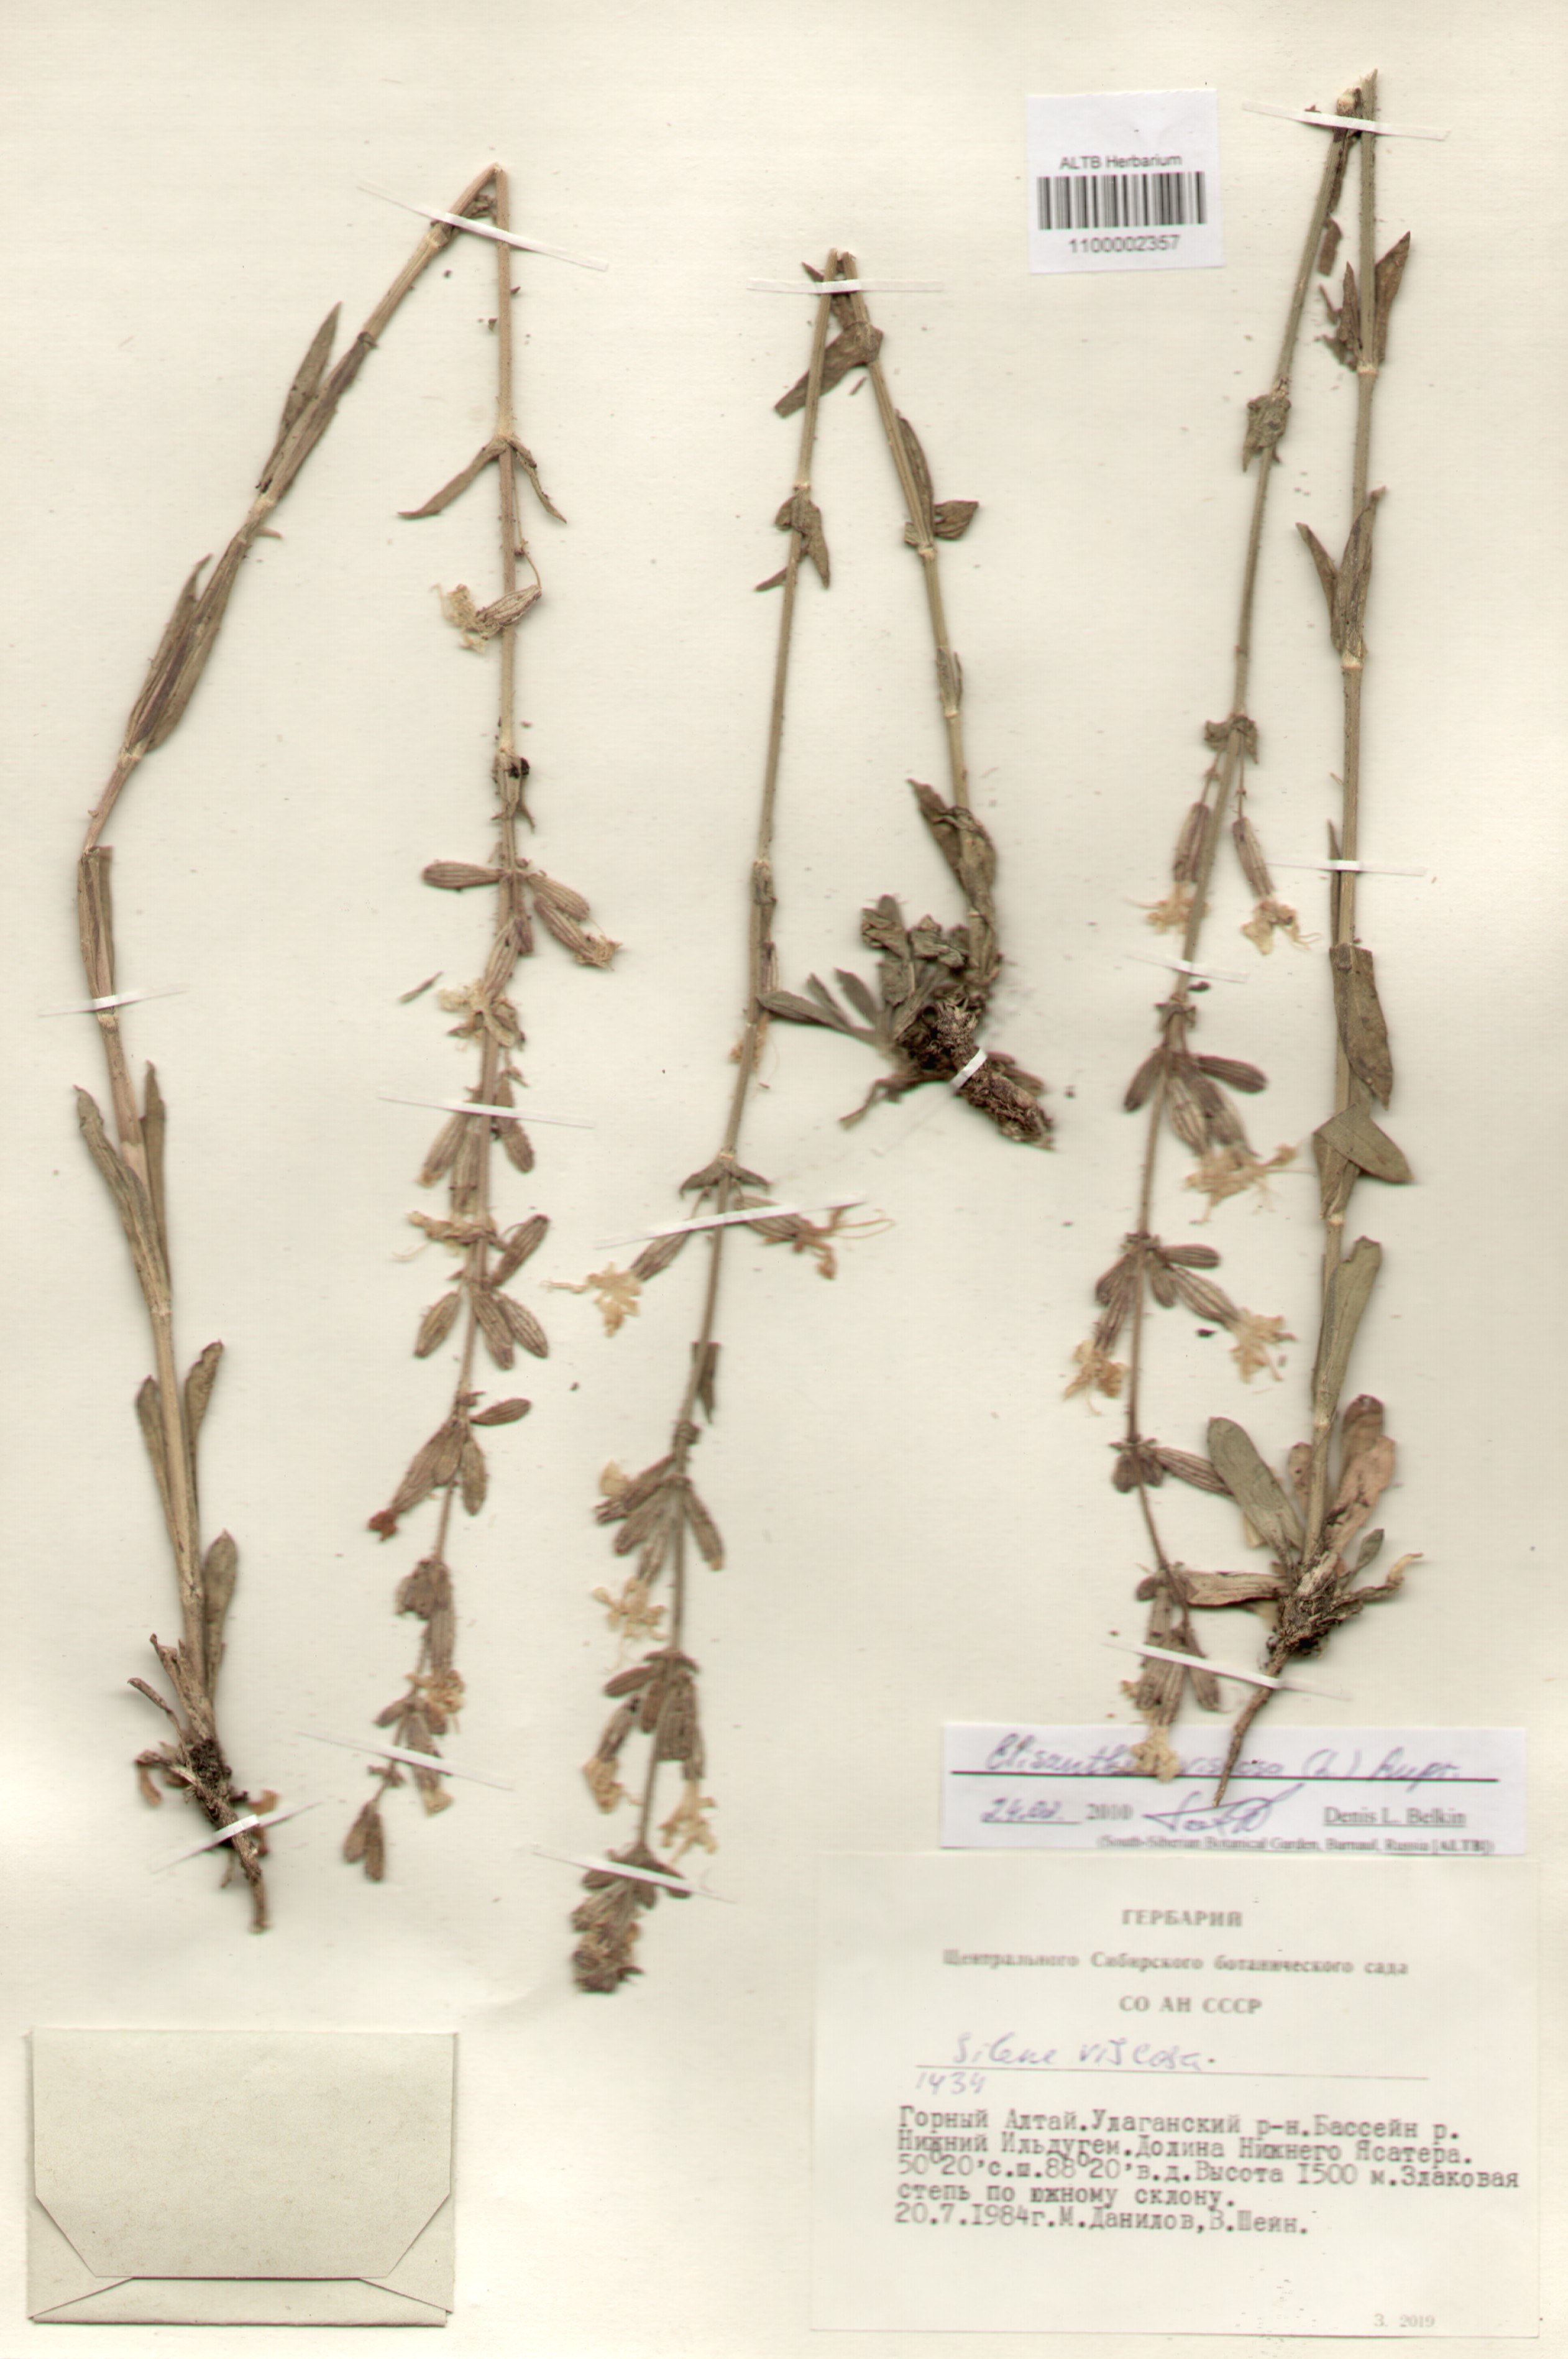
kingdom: Plantae
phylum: Tracheophyta
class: Magnoliopsida
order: Caryophyllales
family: Caryophyllaceae
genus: Silene
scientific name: Silene viscosa
